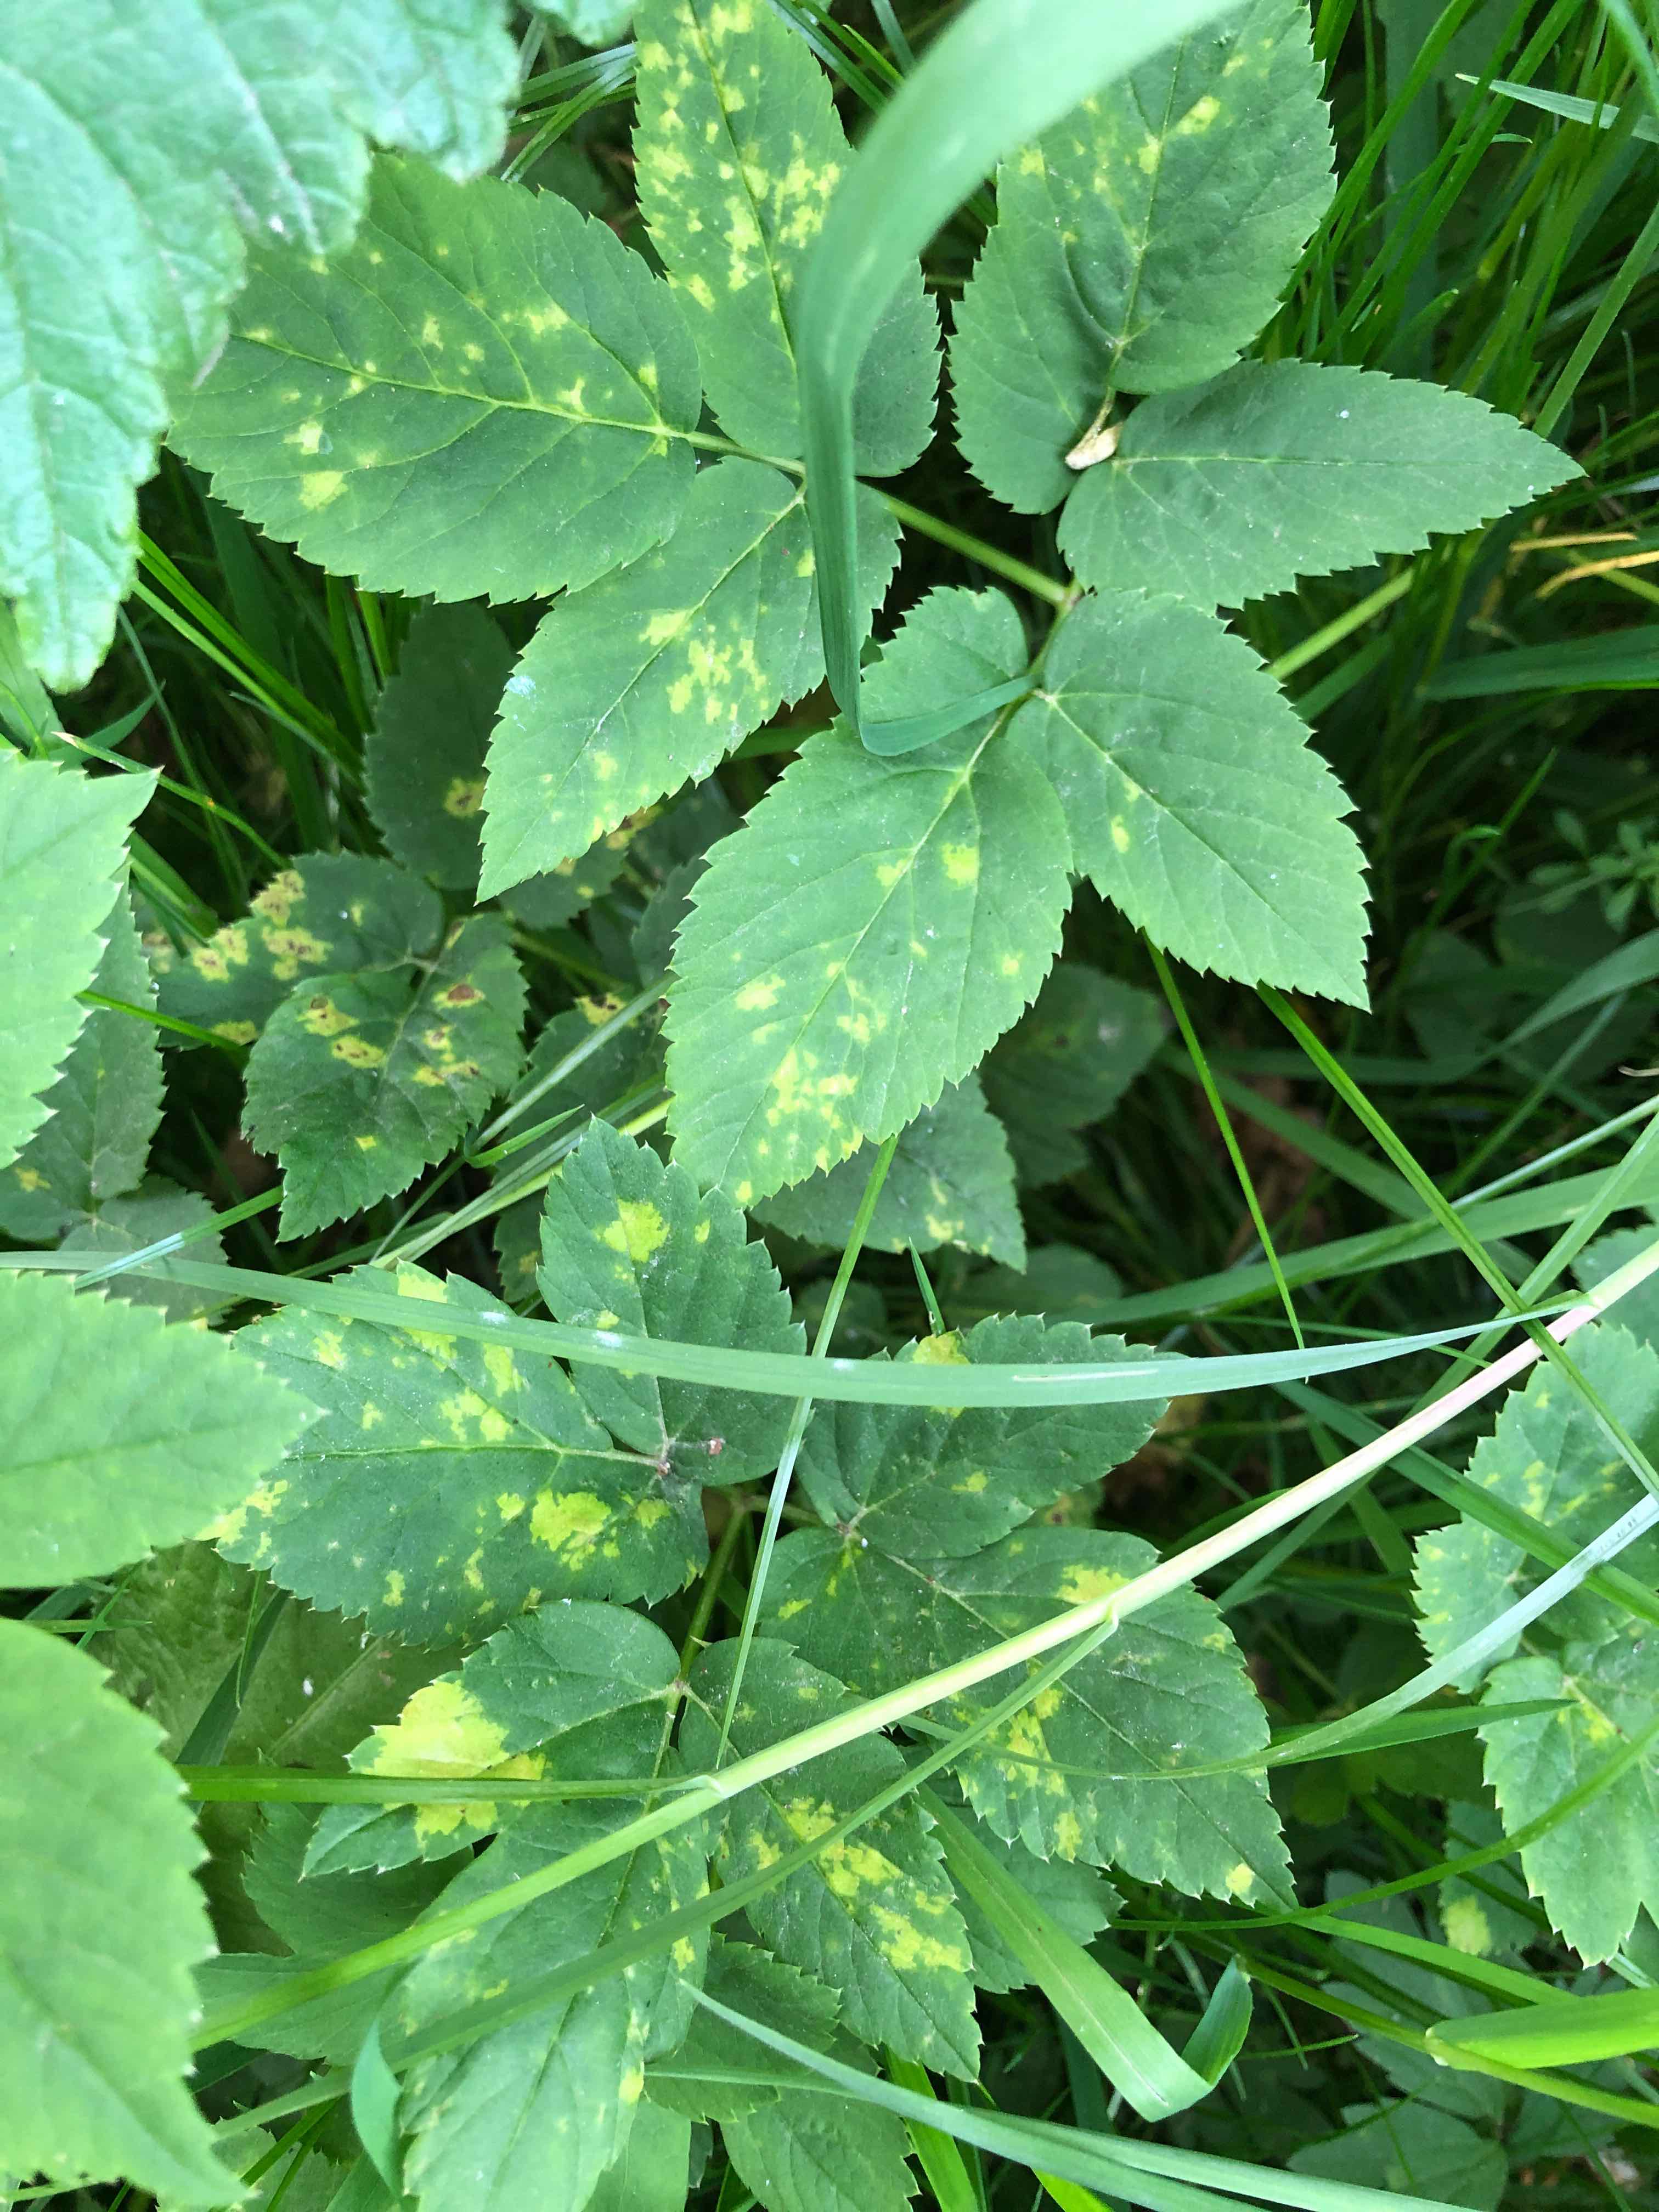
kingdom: Chromista
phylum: Oomycota
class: Peronosporea
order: Peronosporales
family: Peronosporaceae
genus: Peronospora
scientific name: Peronospora crustosa
